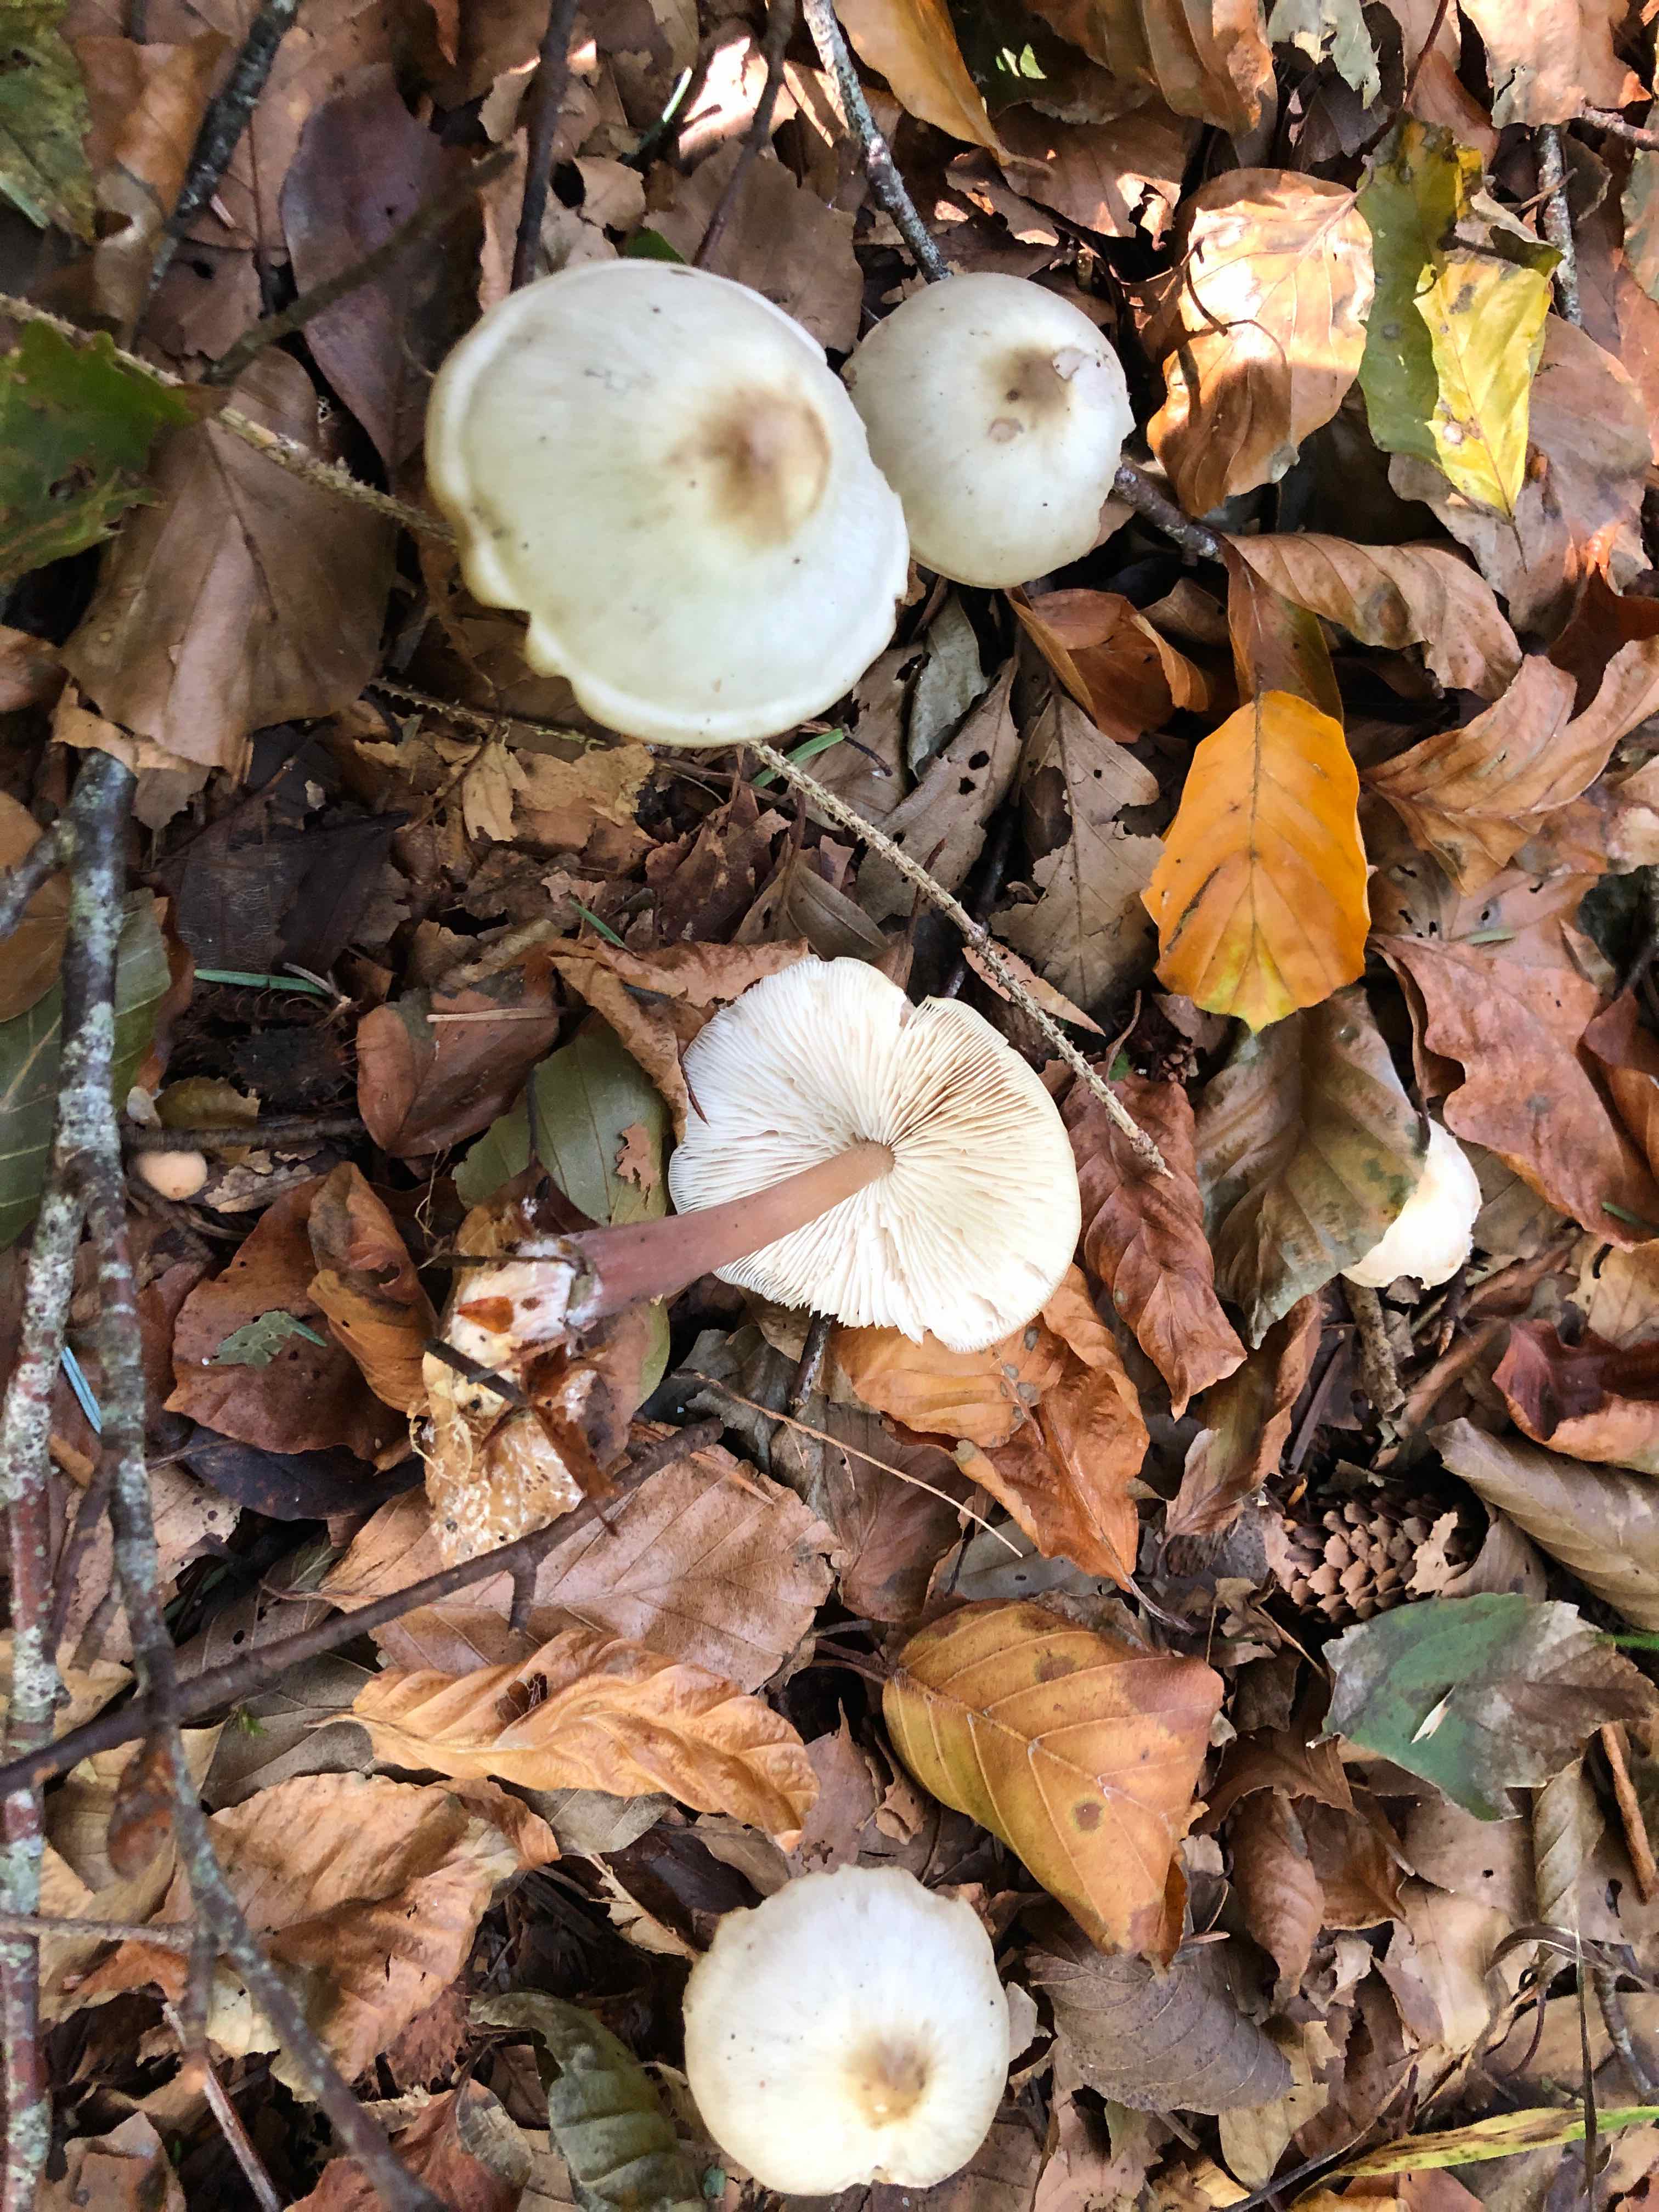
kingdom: Fungi
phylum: Basidiomycota
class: Agaricomycetes
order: Agaricales
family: Omphalotaceae
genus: Rhodocollybia
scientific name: Rhodocollybia asema
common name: horngrå fladhat
